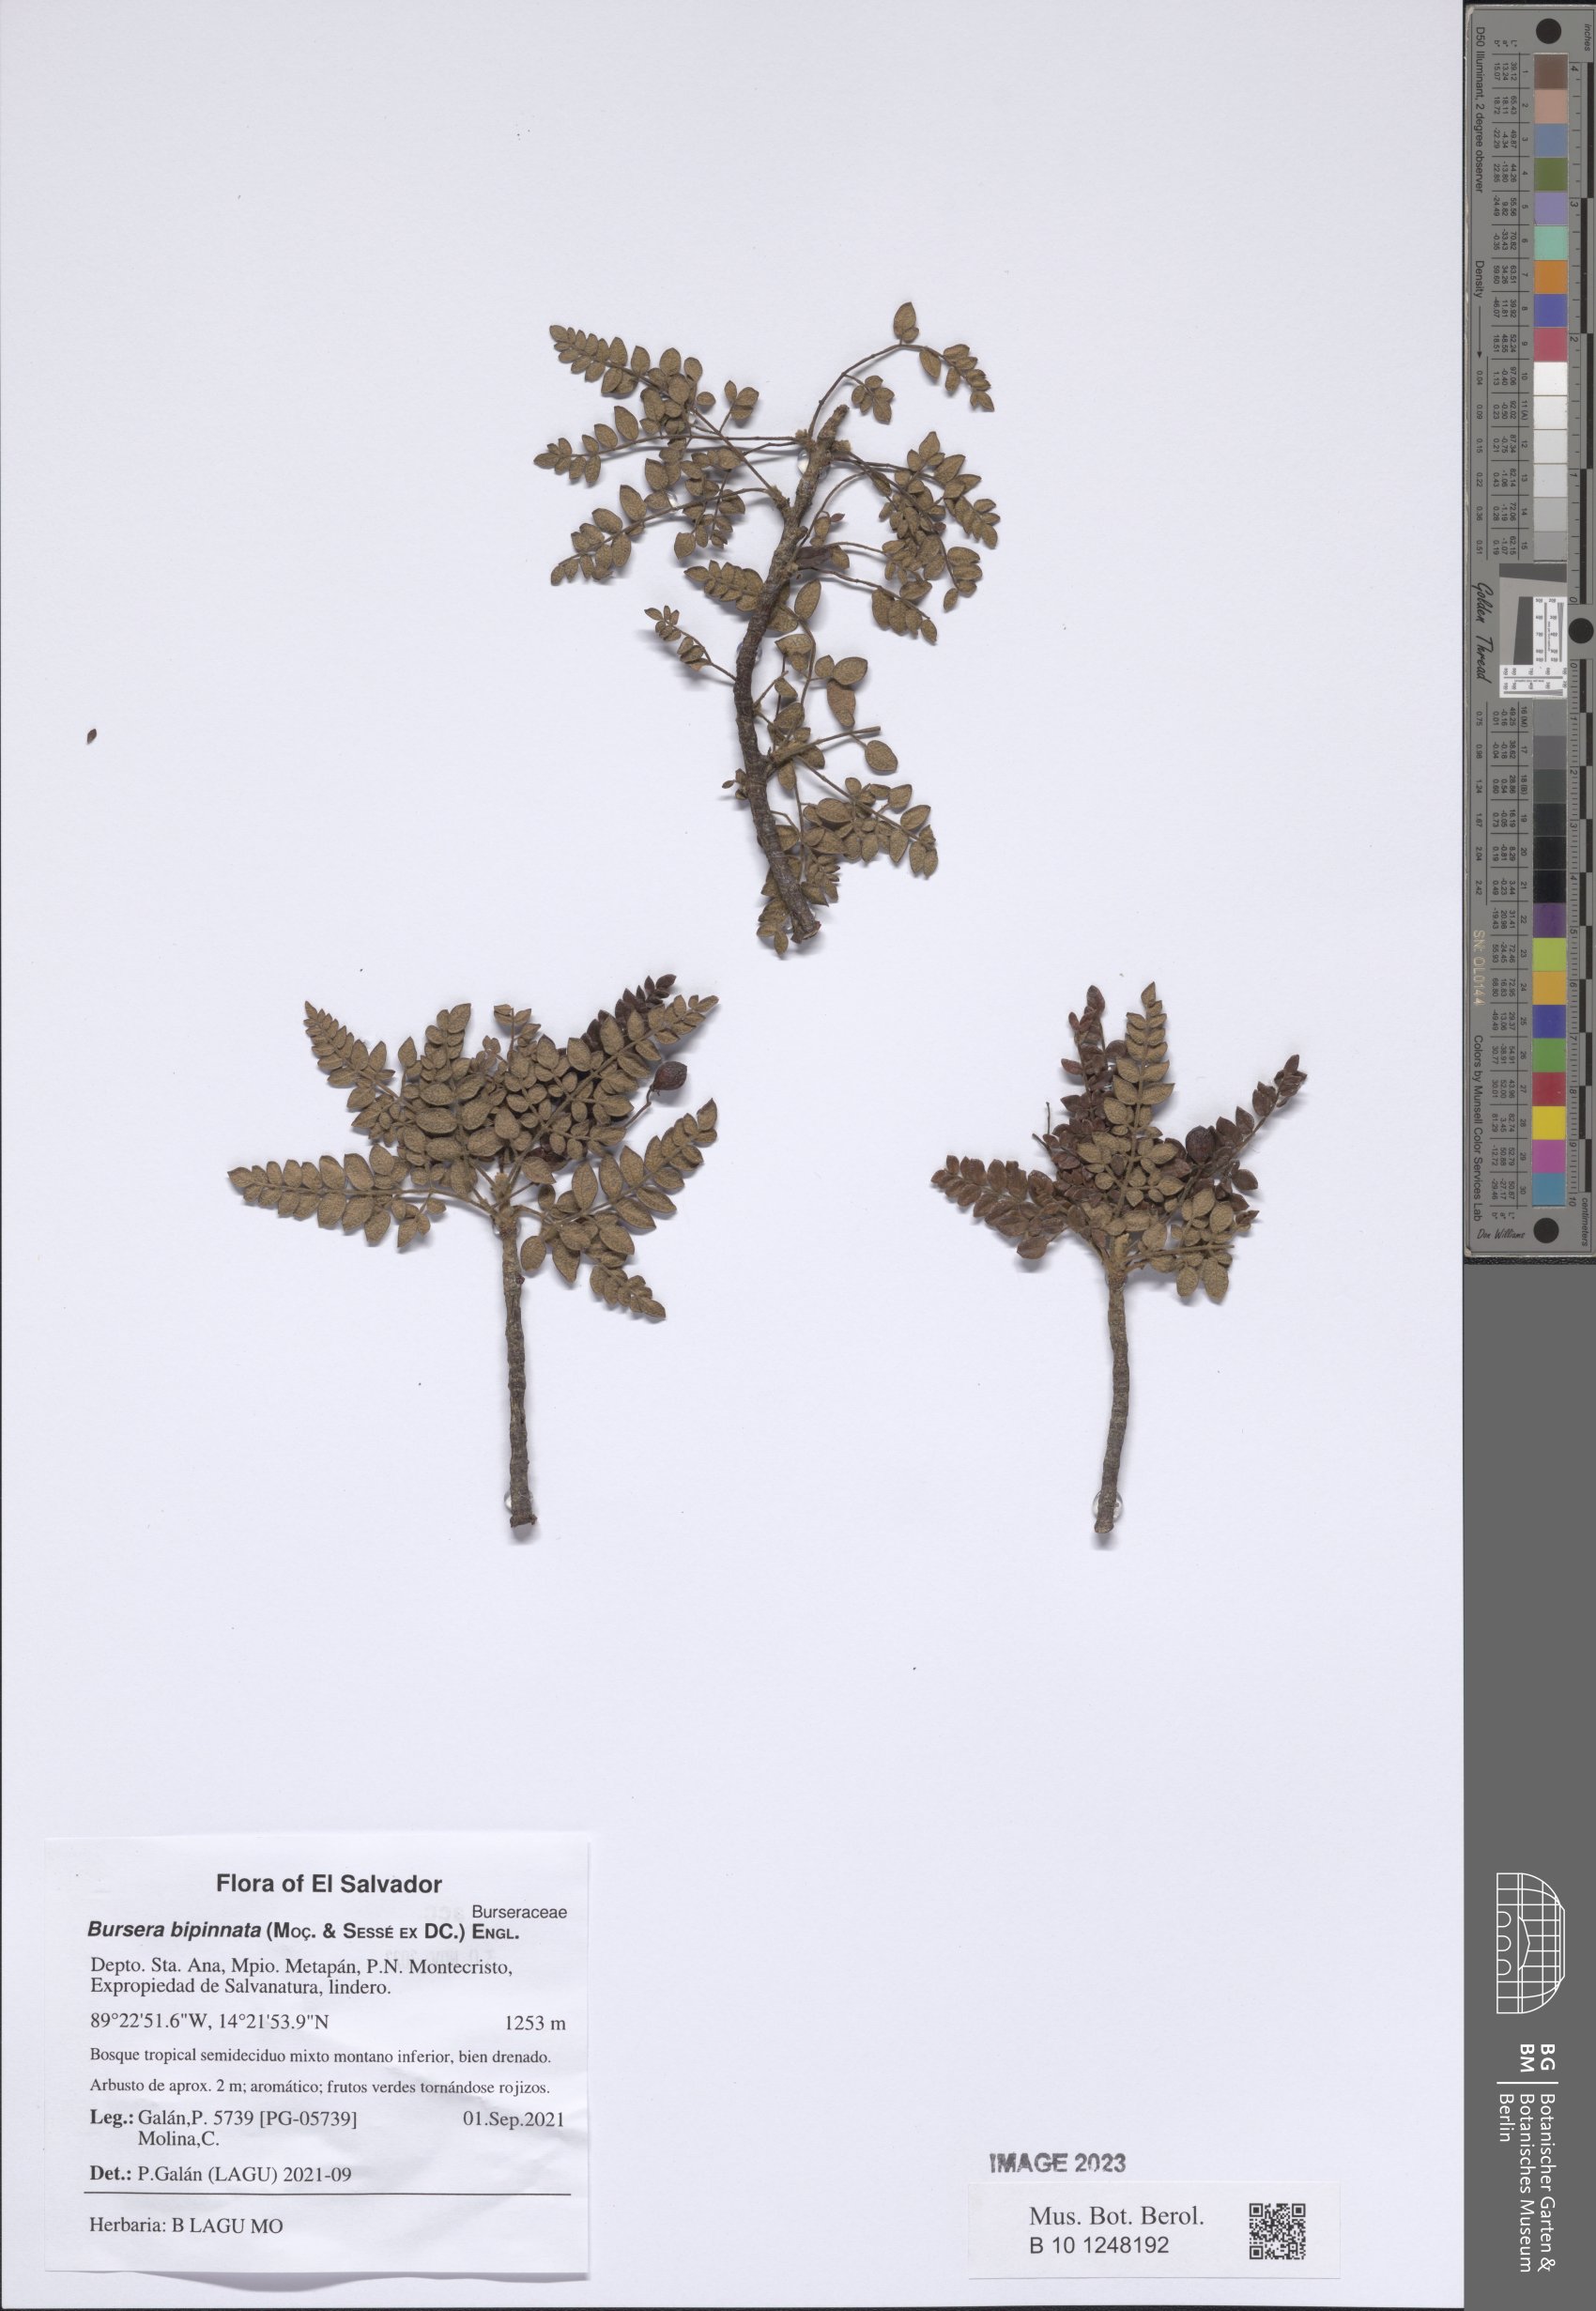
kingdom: Plantae
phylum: Tracheophyta
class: Magnoliopsida
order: Sapindales
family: Burseraceae
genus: Bursera
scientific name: Bursera bipinnata
